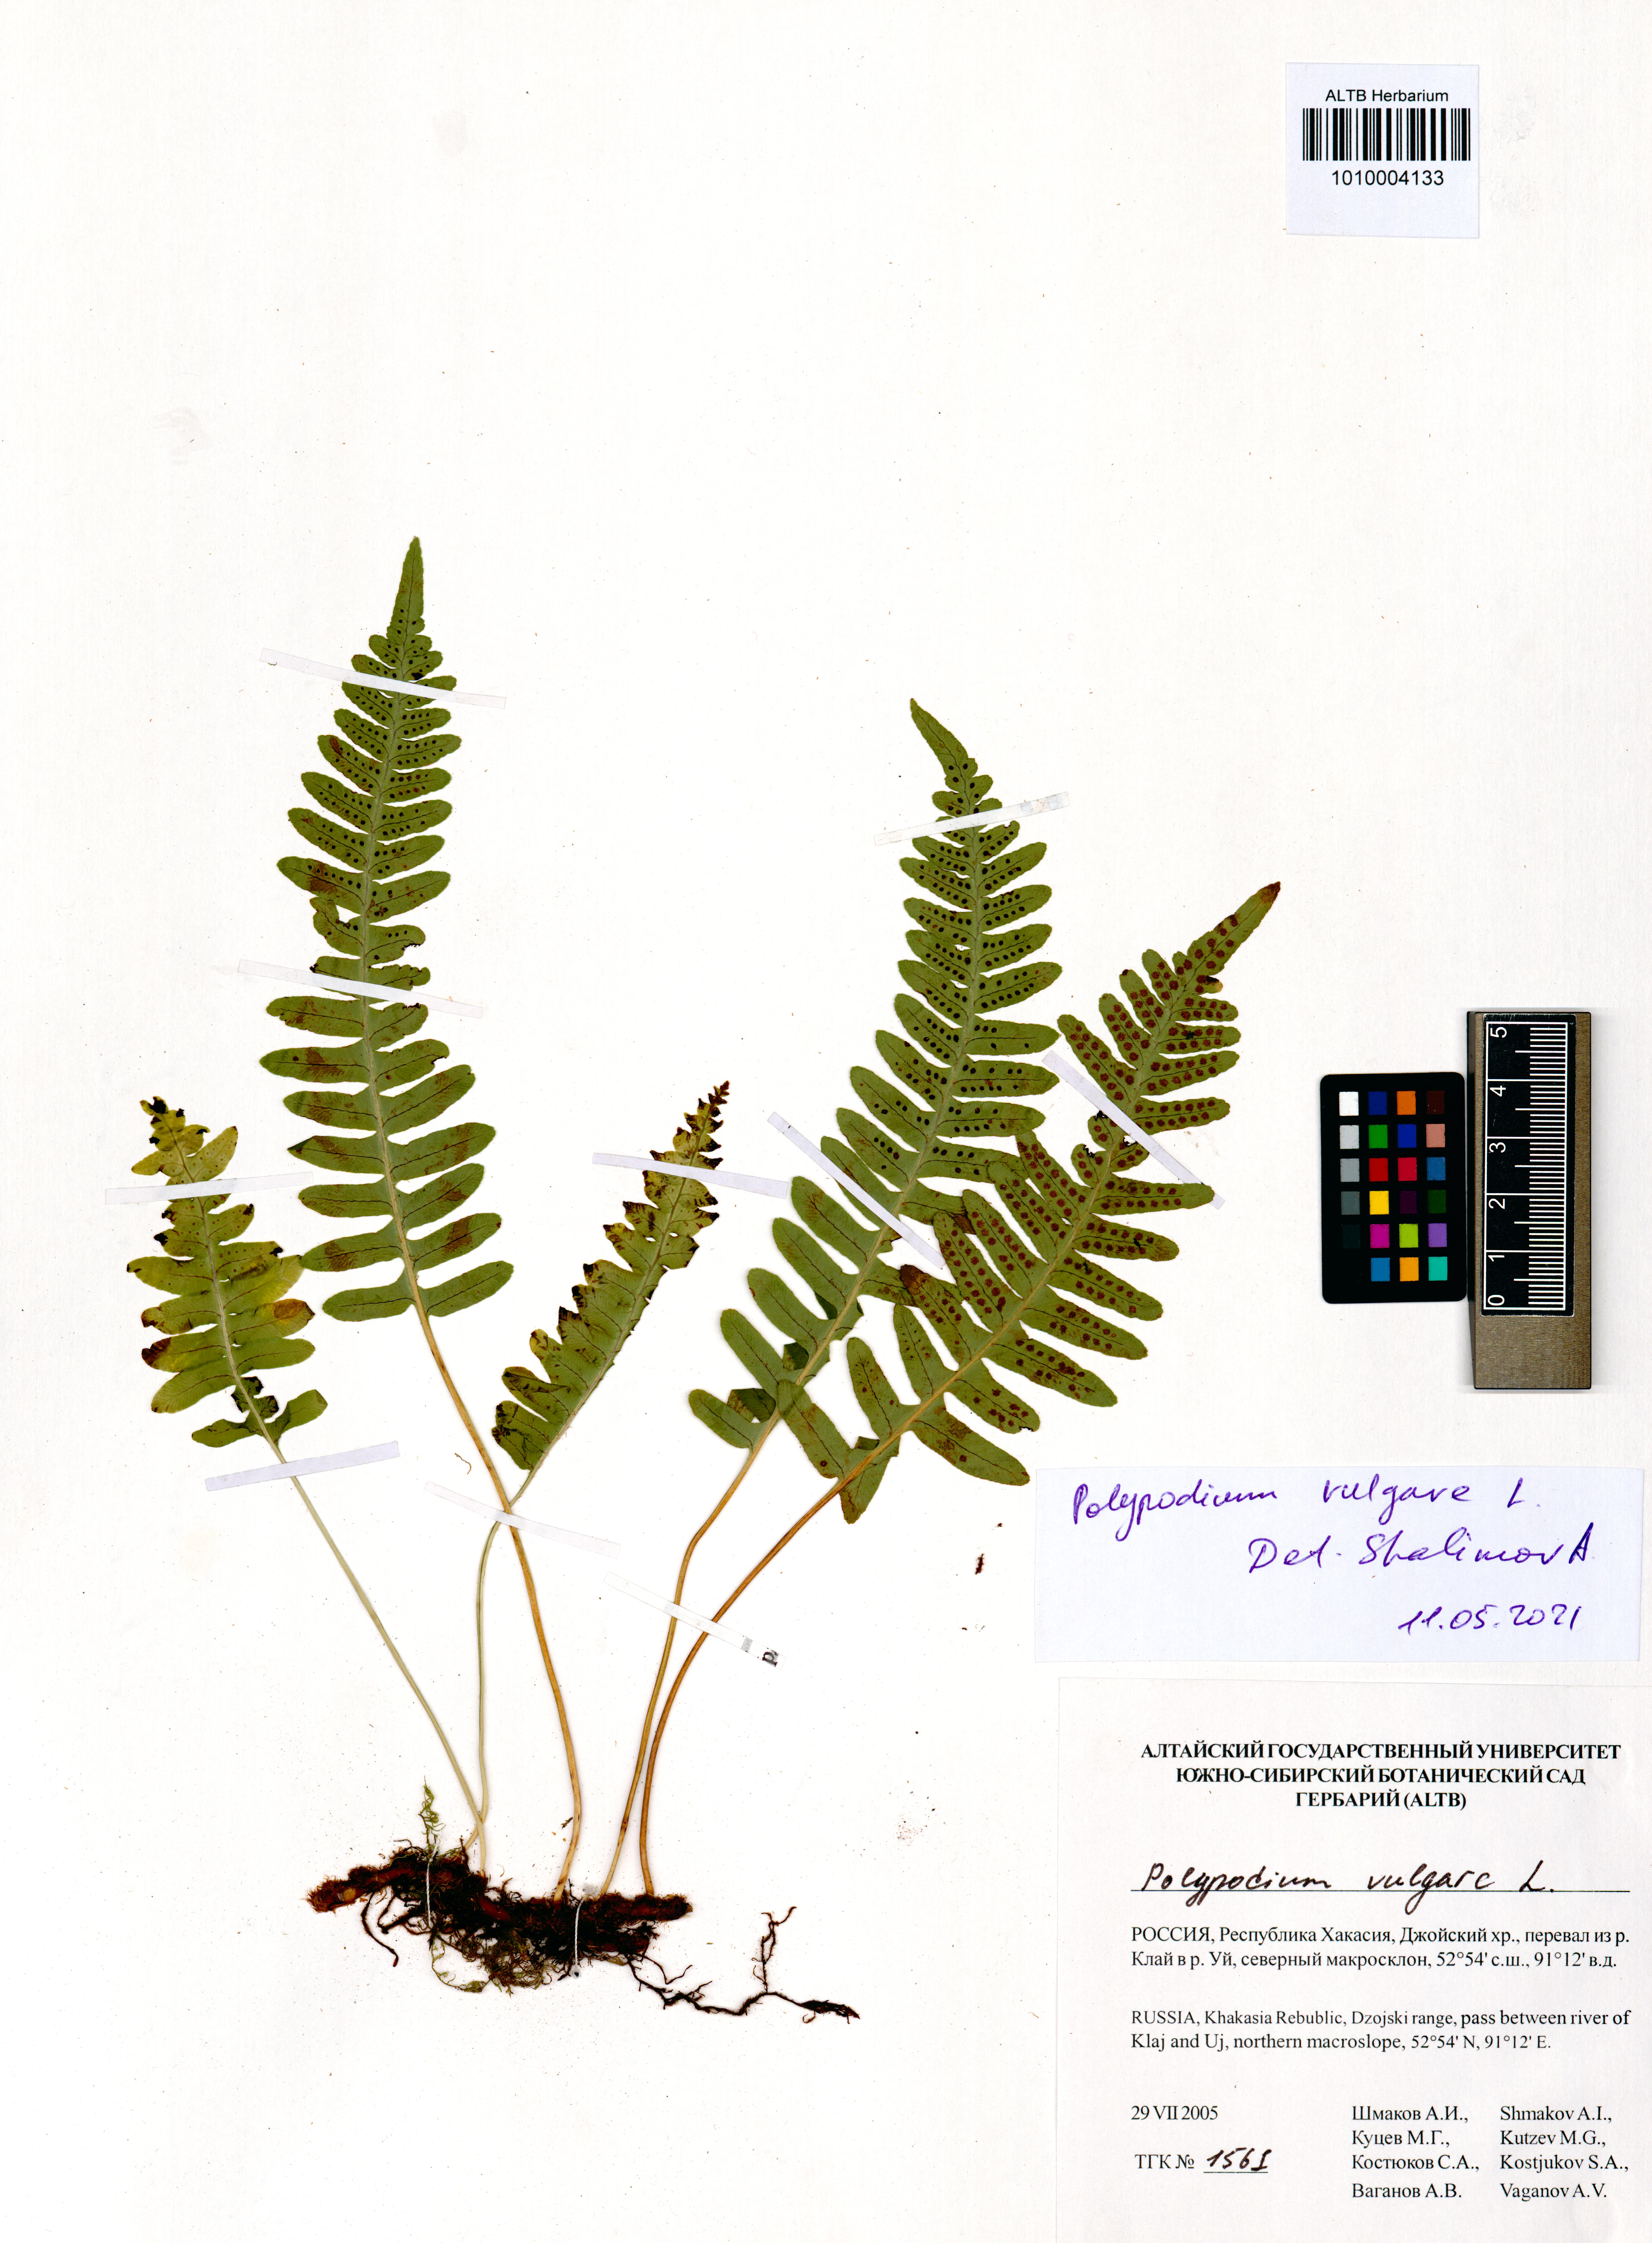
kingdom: Plantae
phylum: Tracheophyta
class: Polypodiopsida
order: Polypodiales
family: Polypodiaceae
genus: Polypodium
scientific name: Polypodium vulgare
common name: Common polypody
